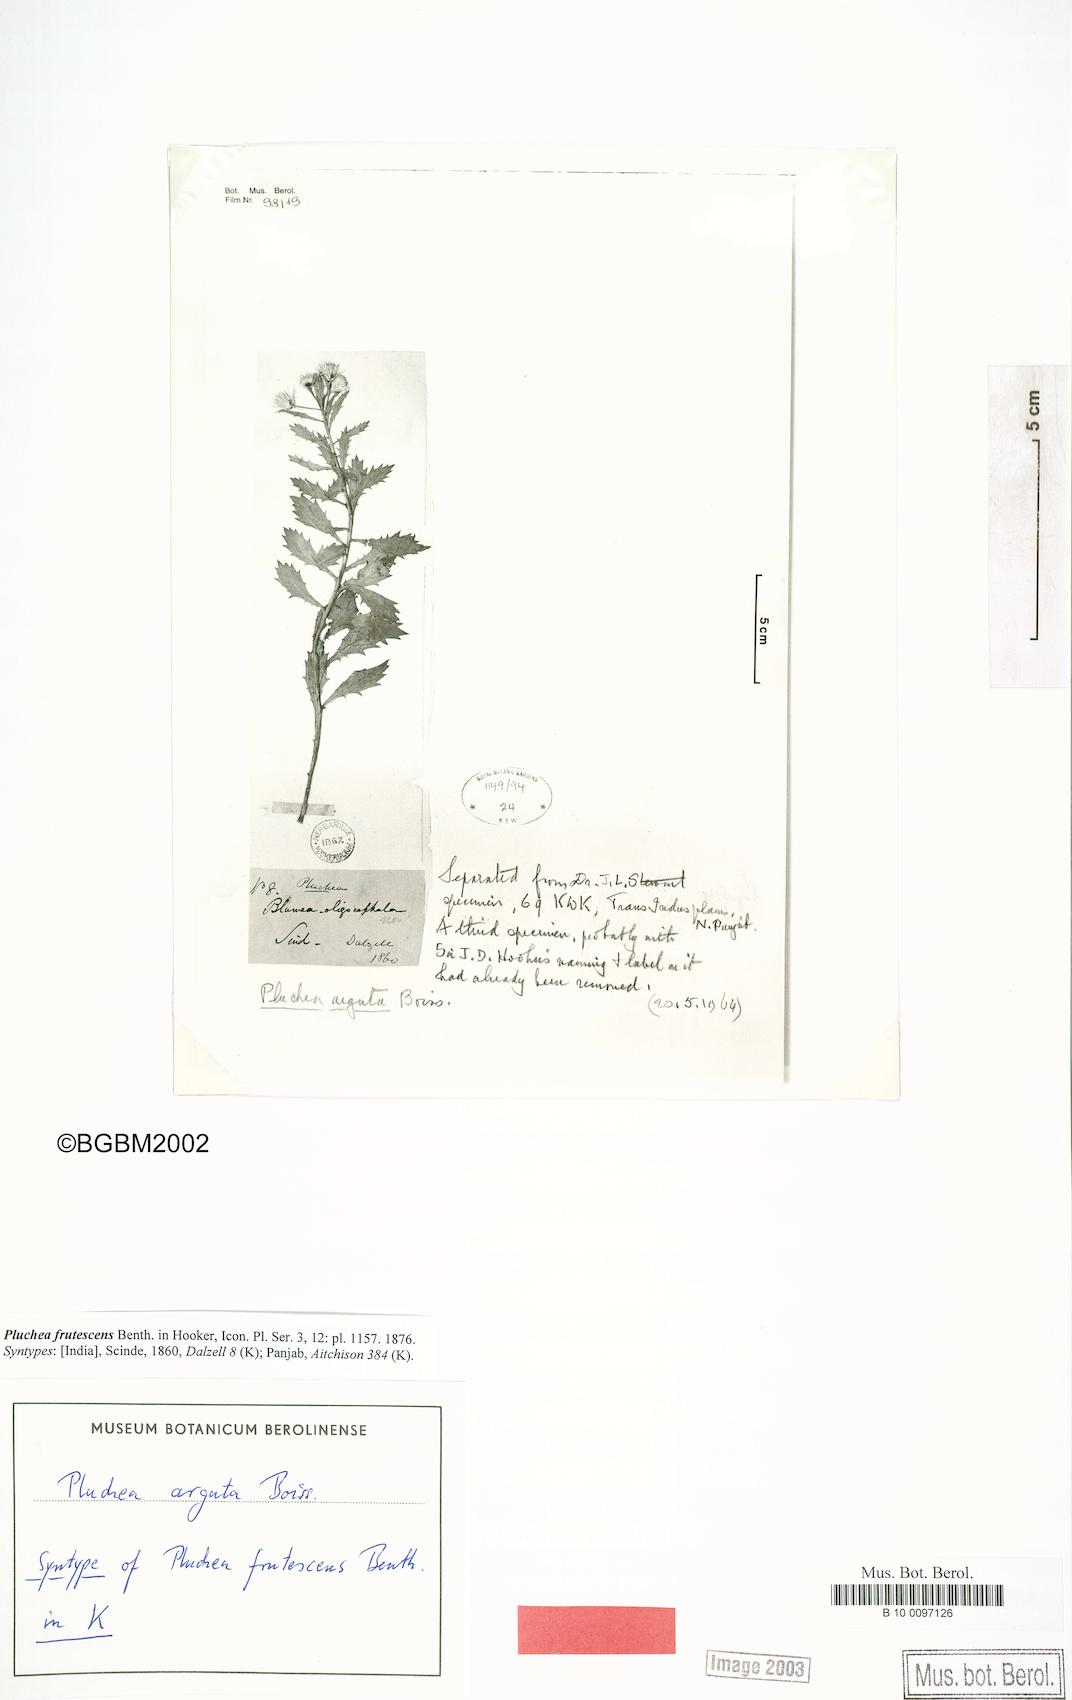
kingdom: Plantae
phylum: Tracheophyta
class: Magnoliopsida
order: Asterales
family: Asteraceae
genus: Pluchea
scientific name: Pluchea arguta
